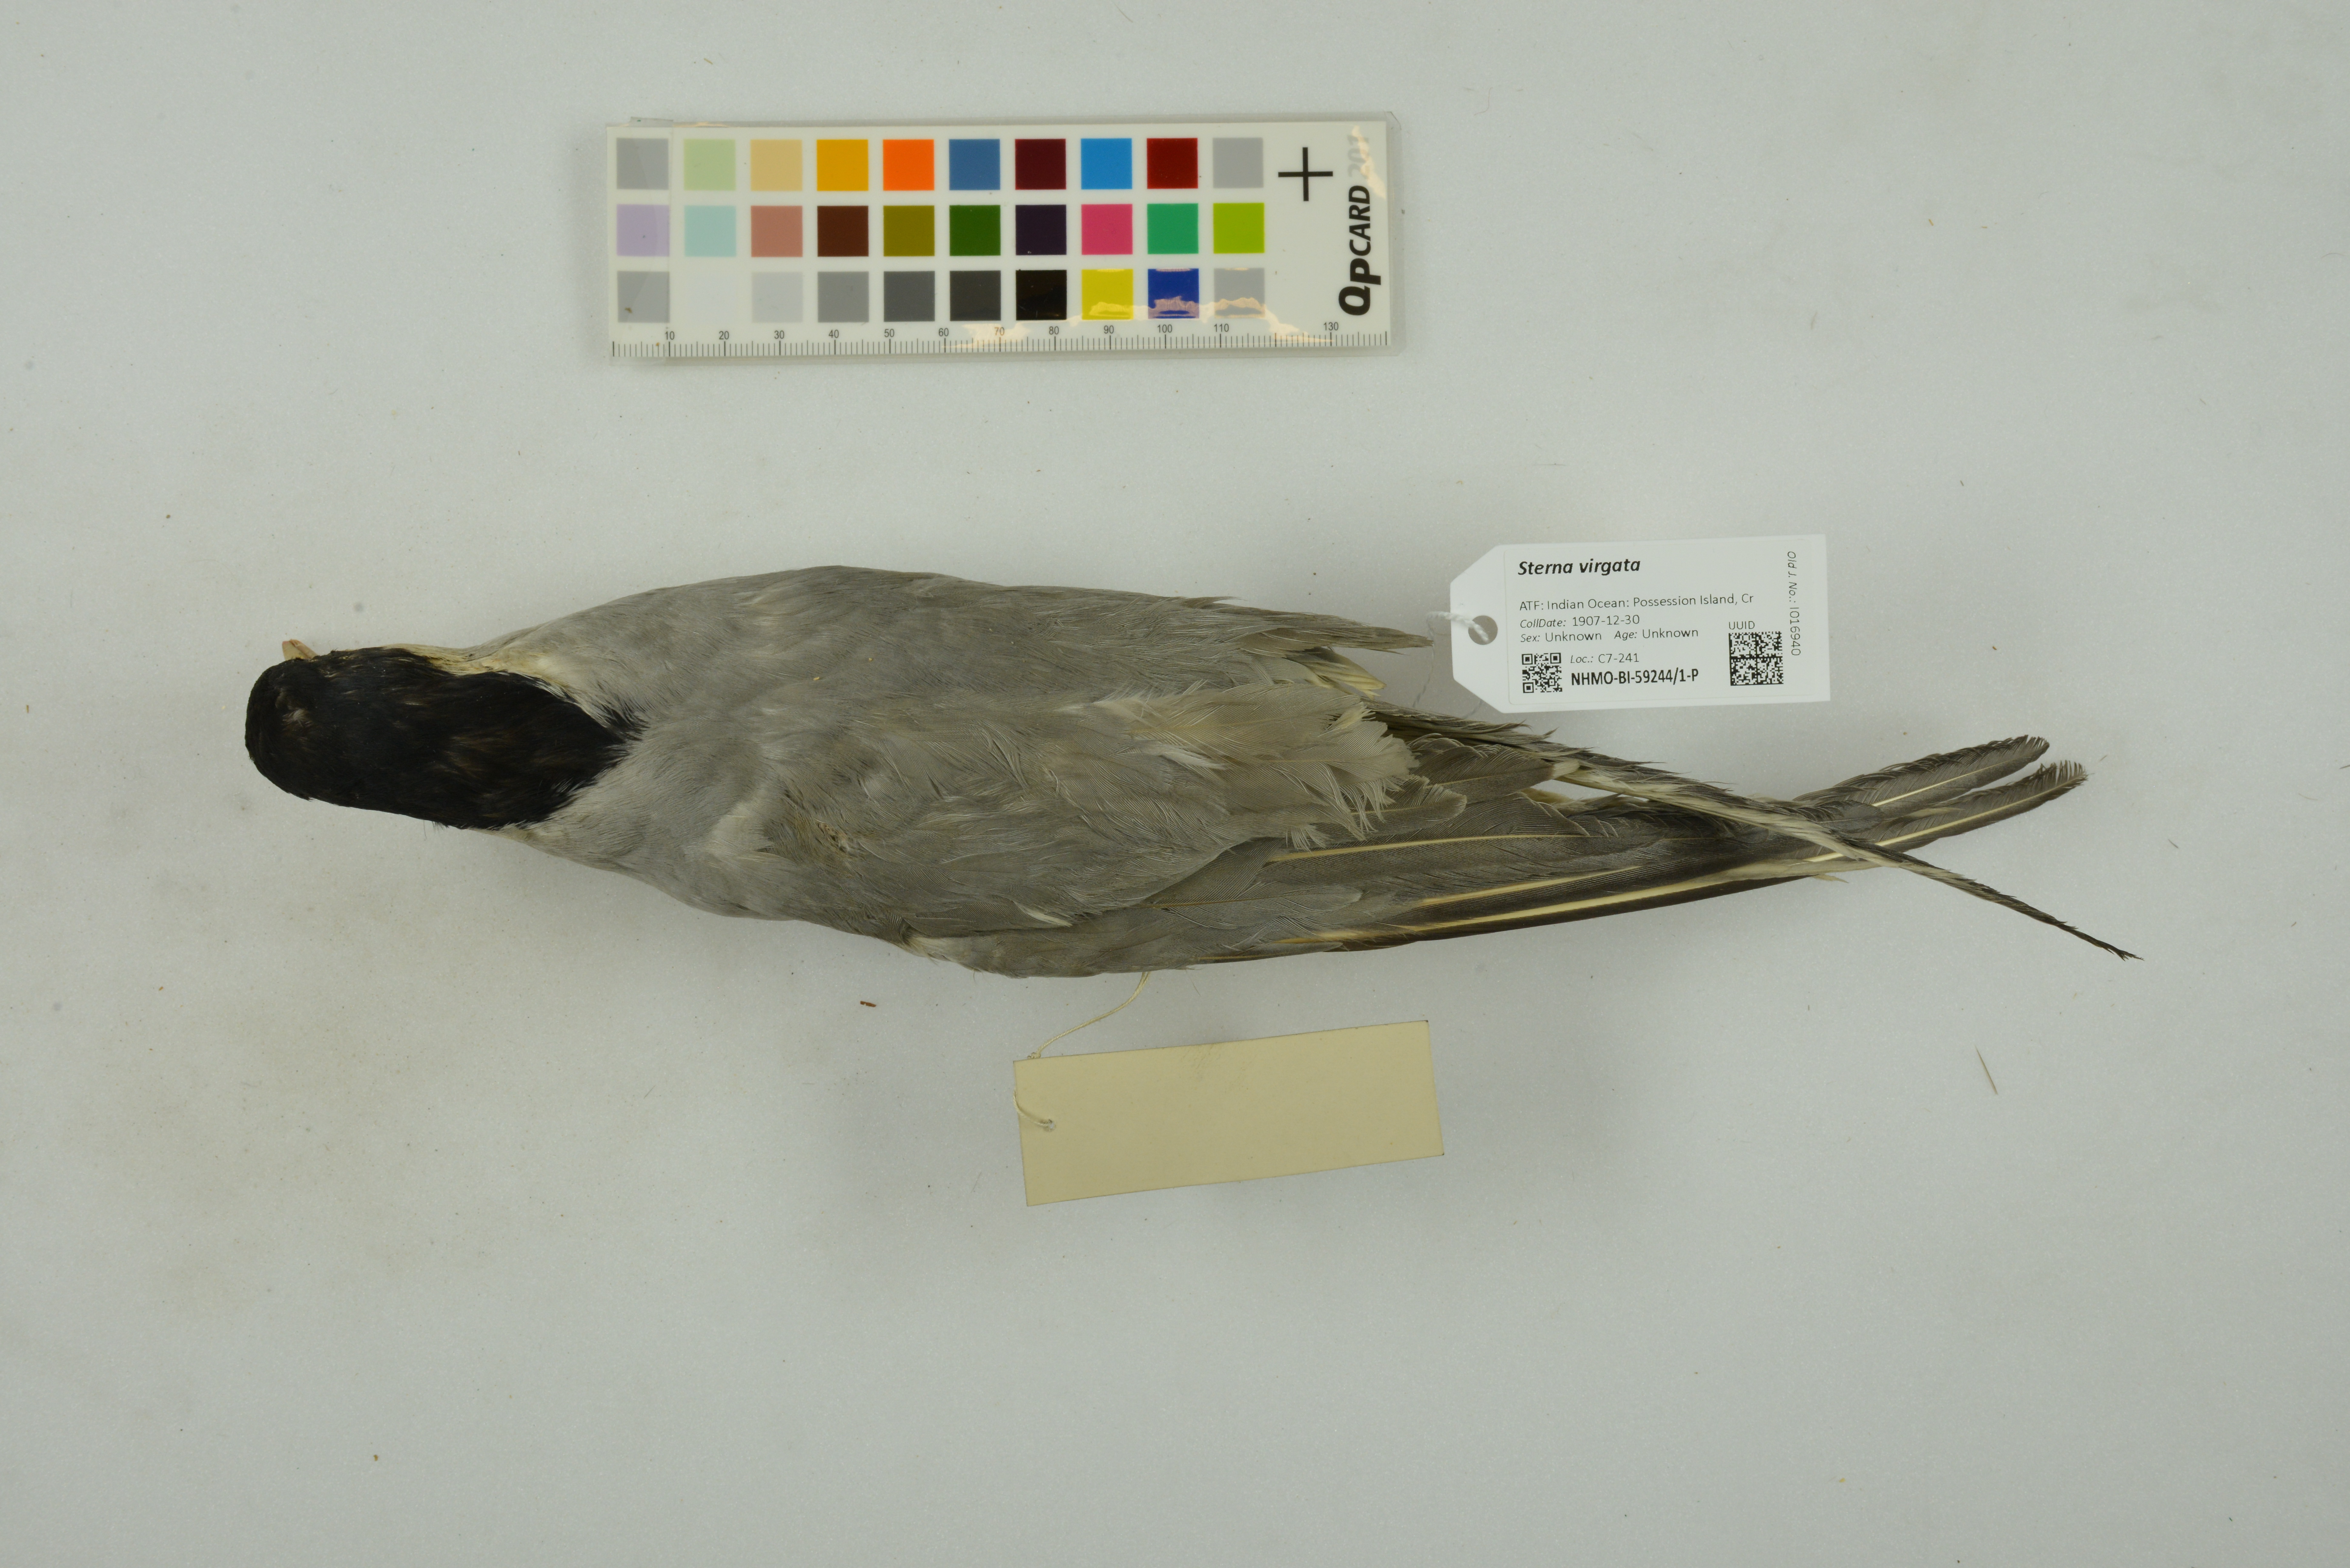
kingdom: Animalia
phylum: Chordata
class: Aves
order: Charadriiformes
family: Laridae
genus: Sterna
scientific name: Sterna virgata
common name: Kerguelen tern
